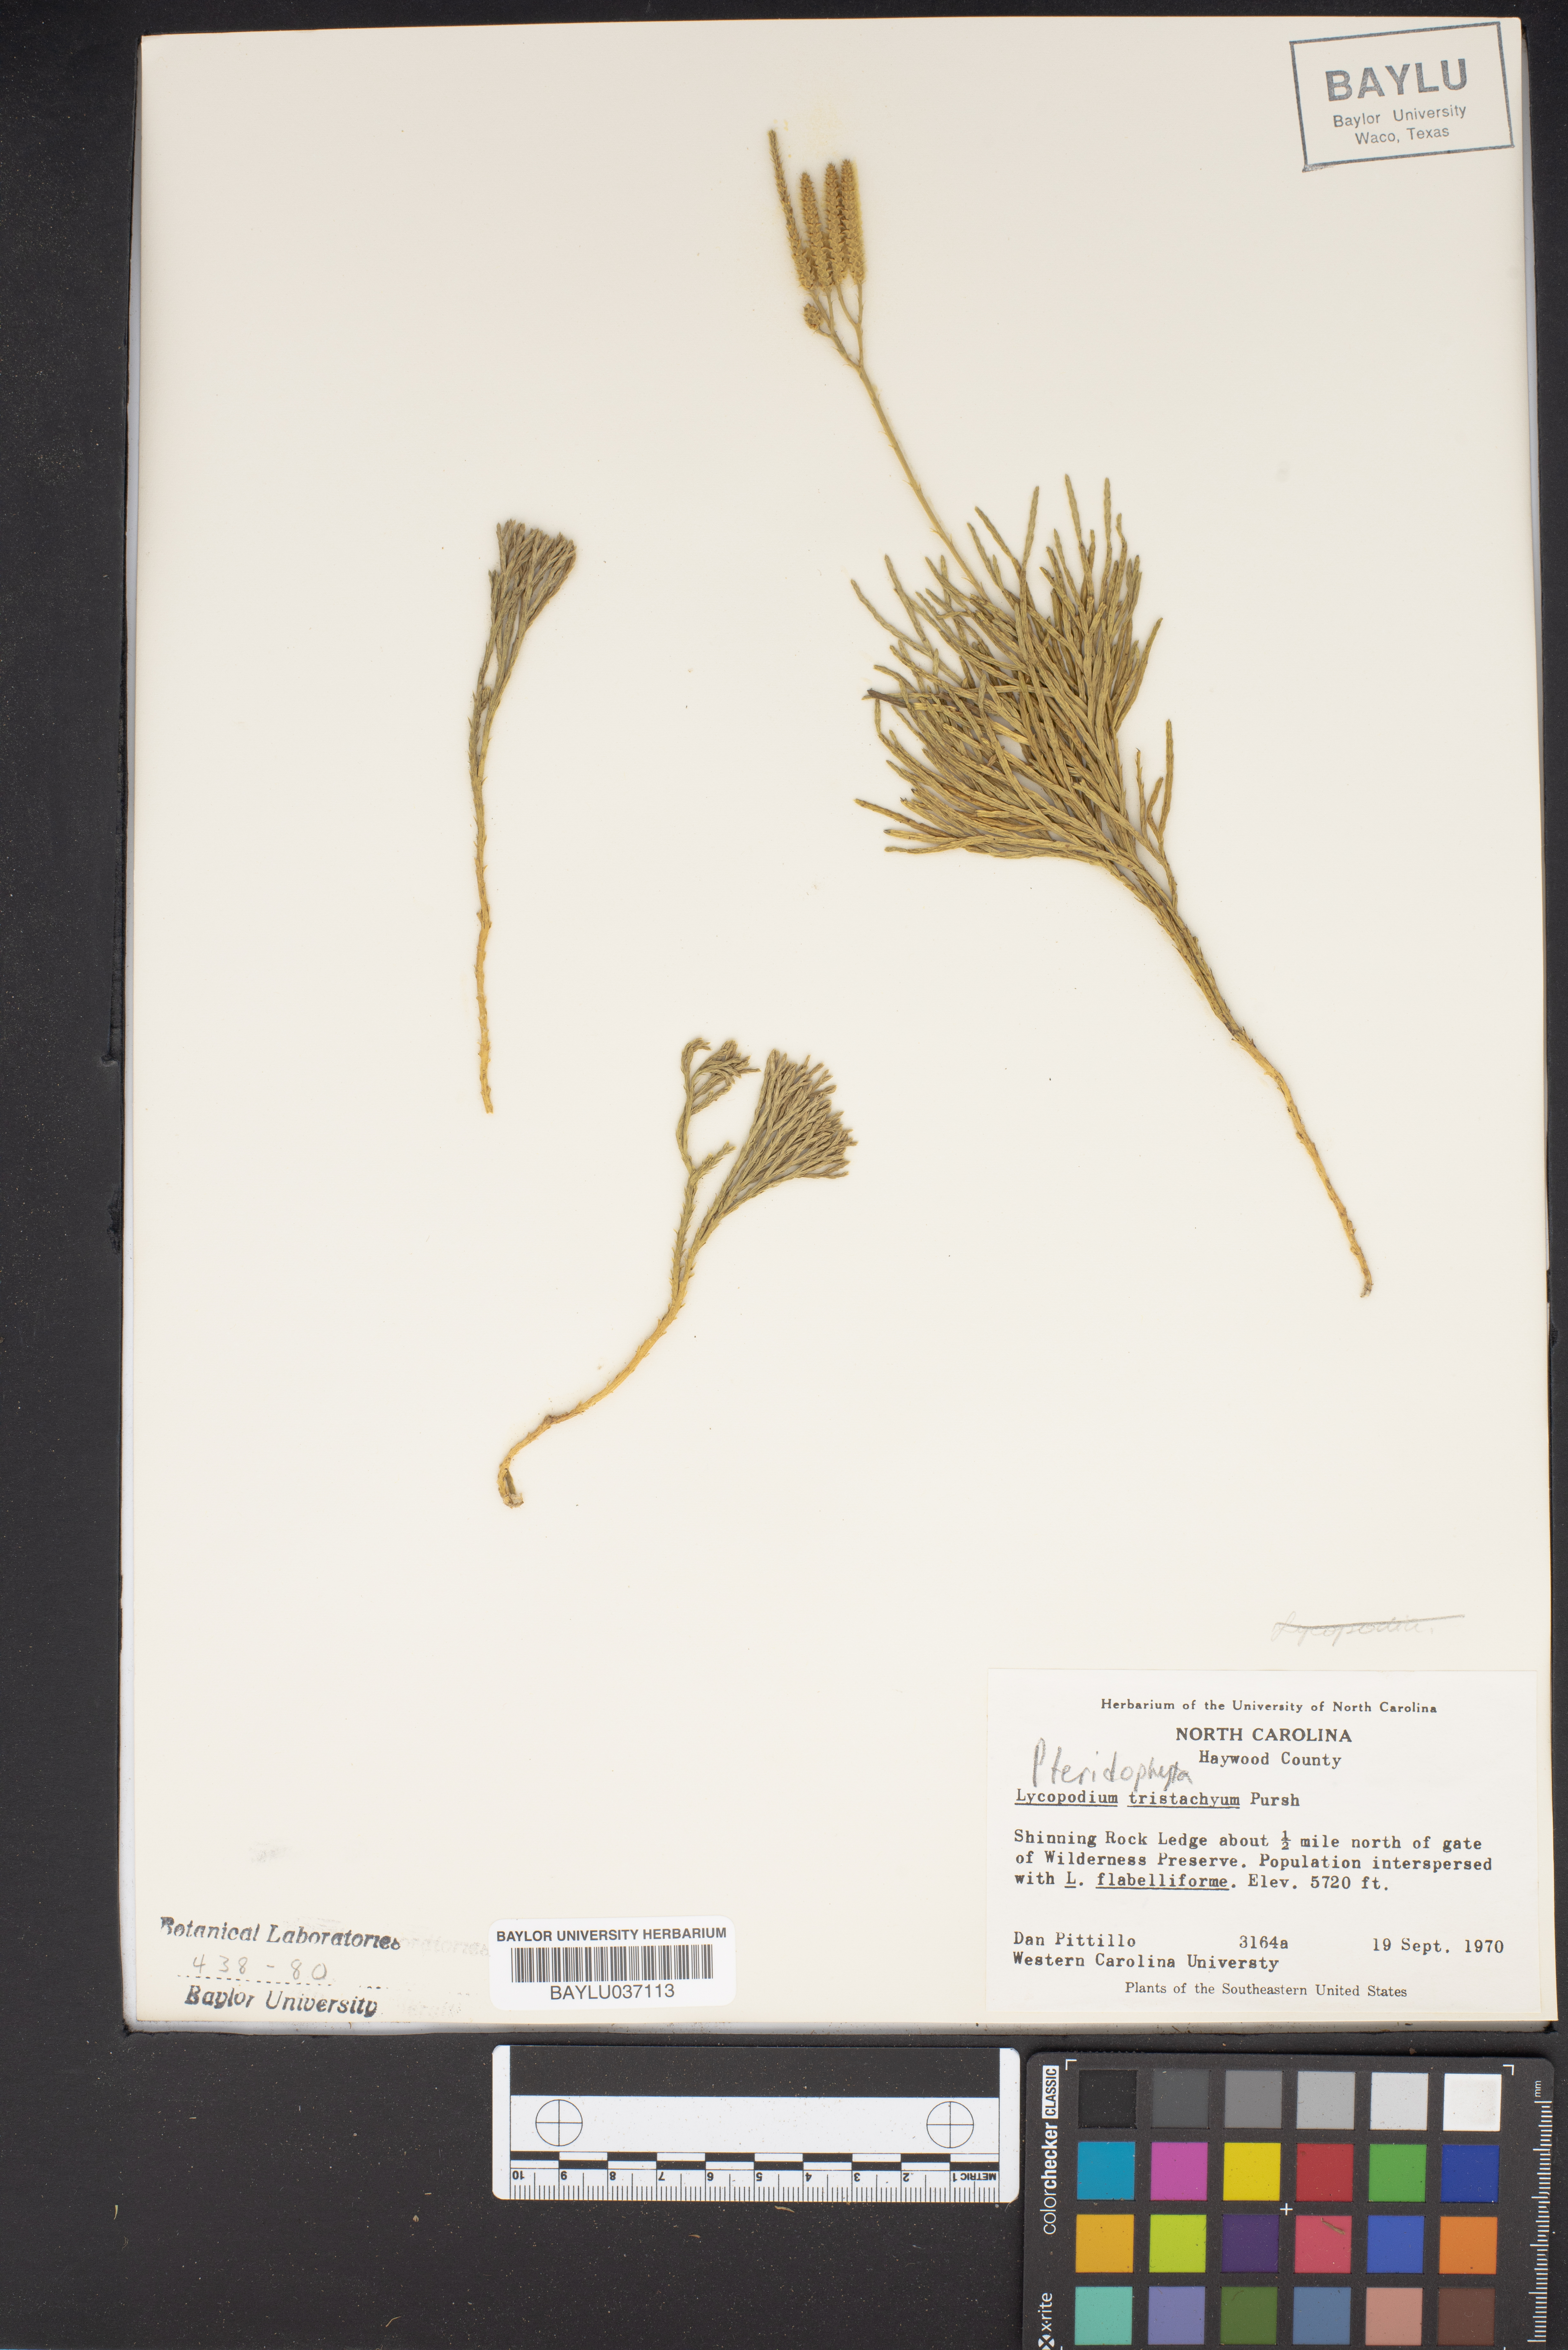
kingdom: Plantae
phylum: Tracheophyta
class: Lycopodiopsida
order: Lycopodiales
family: Lycopodiaceae
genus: Diphasiastrum
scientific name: Diphasiastrum tristachyum
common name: Blue ground-cedar
